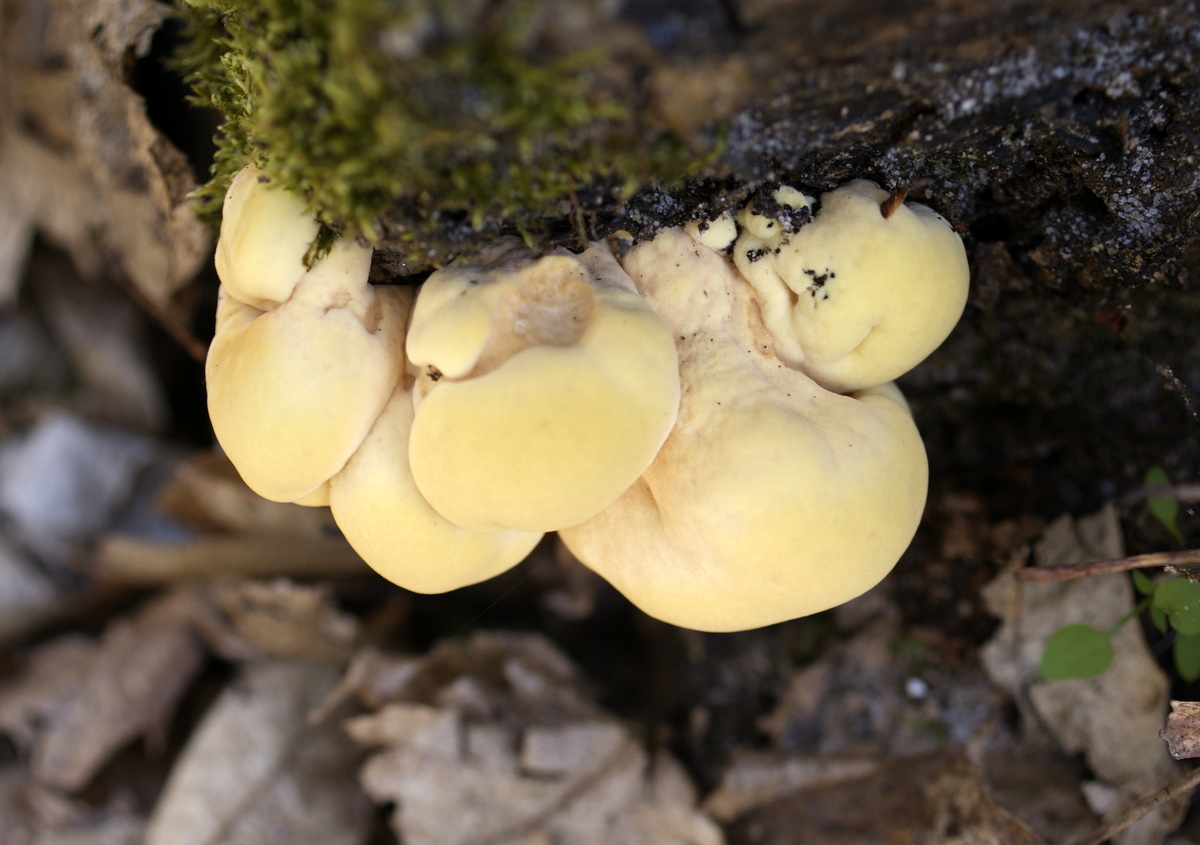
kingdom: Fungi
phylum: Basidiomycota
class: Agaricomycetes
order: Polyporales
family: Laetiporaceae
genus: Laetiporus
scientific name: Laetiporus sulphureus
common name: svovlporesvamp
